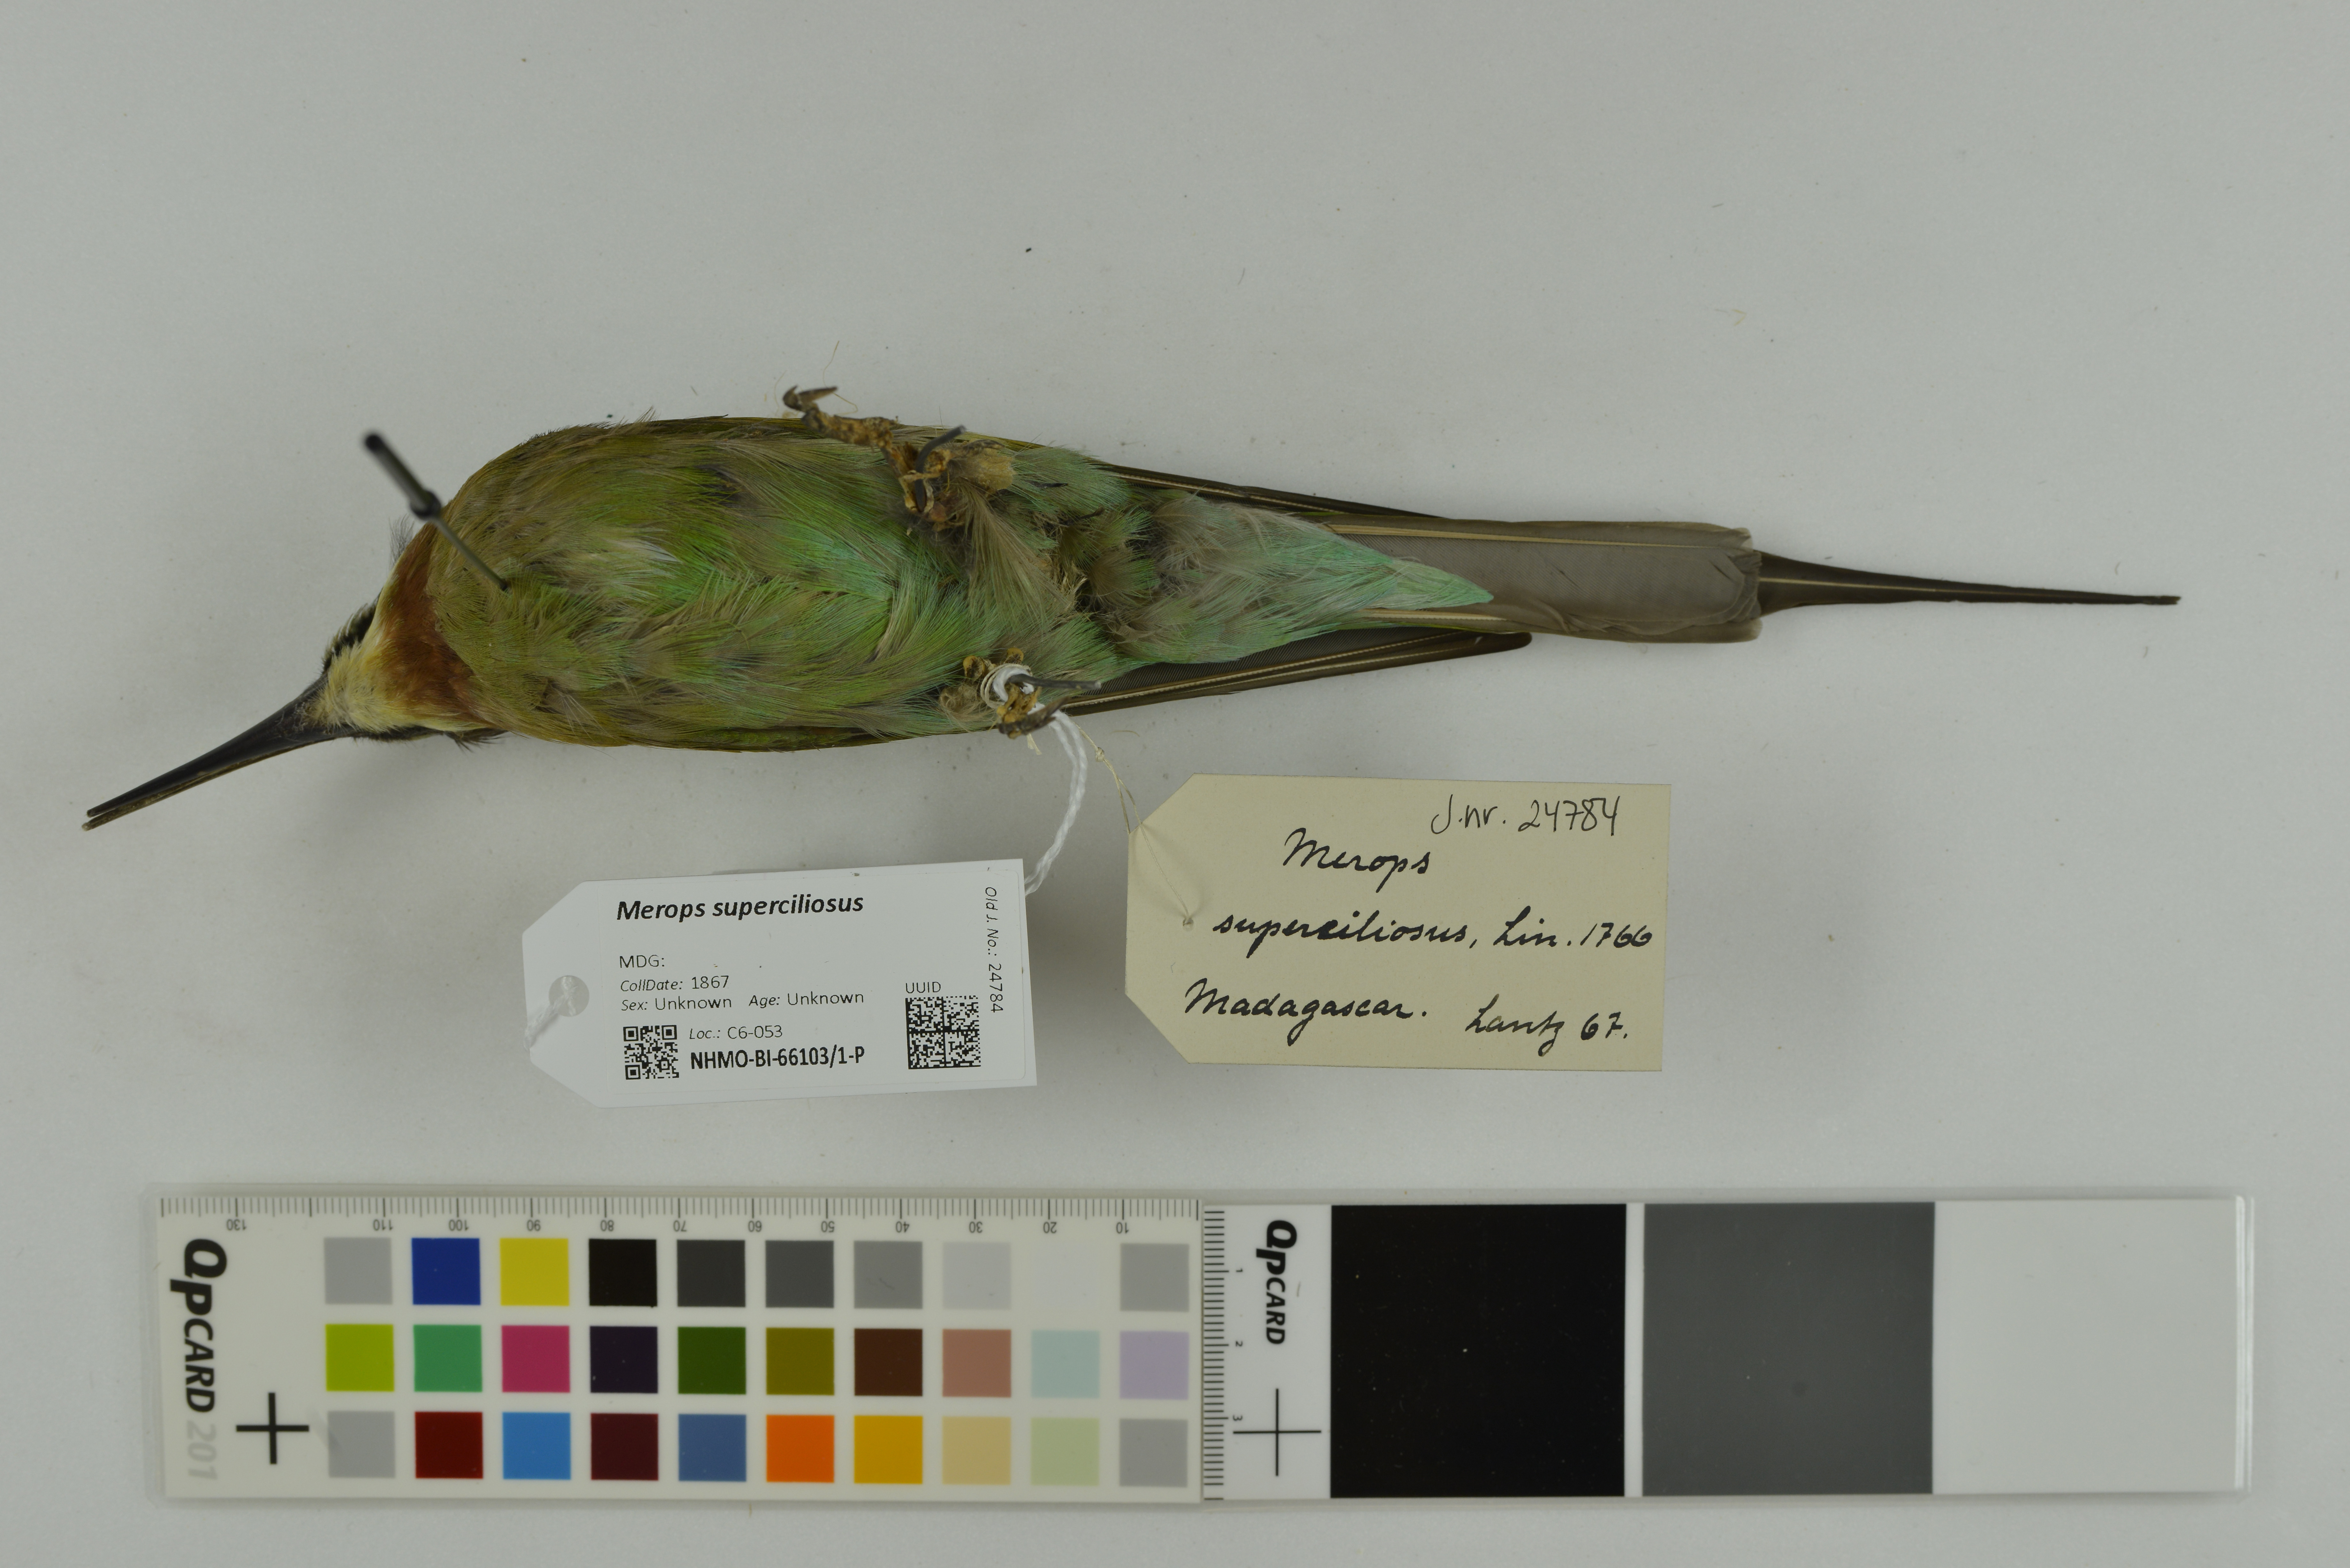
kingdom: Animalia
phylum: Chordata
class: Aves
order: Coraciiformes
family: Meropidae
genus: Merops
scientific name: Merops superciliosus
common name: Olive bee-eater
